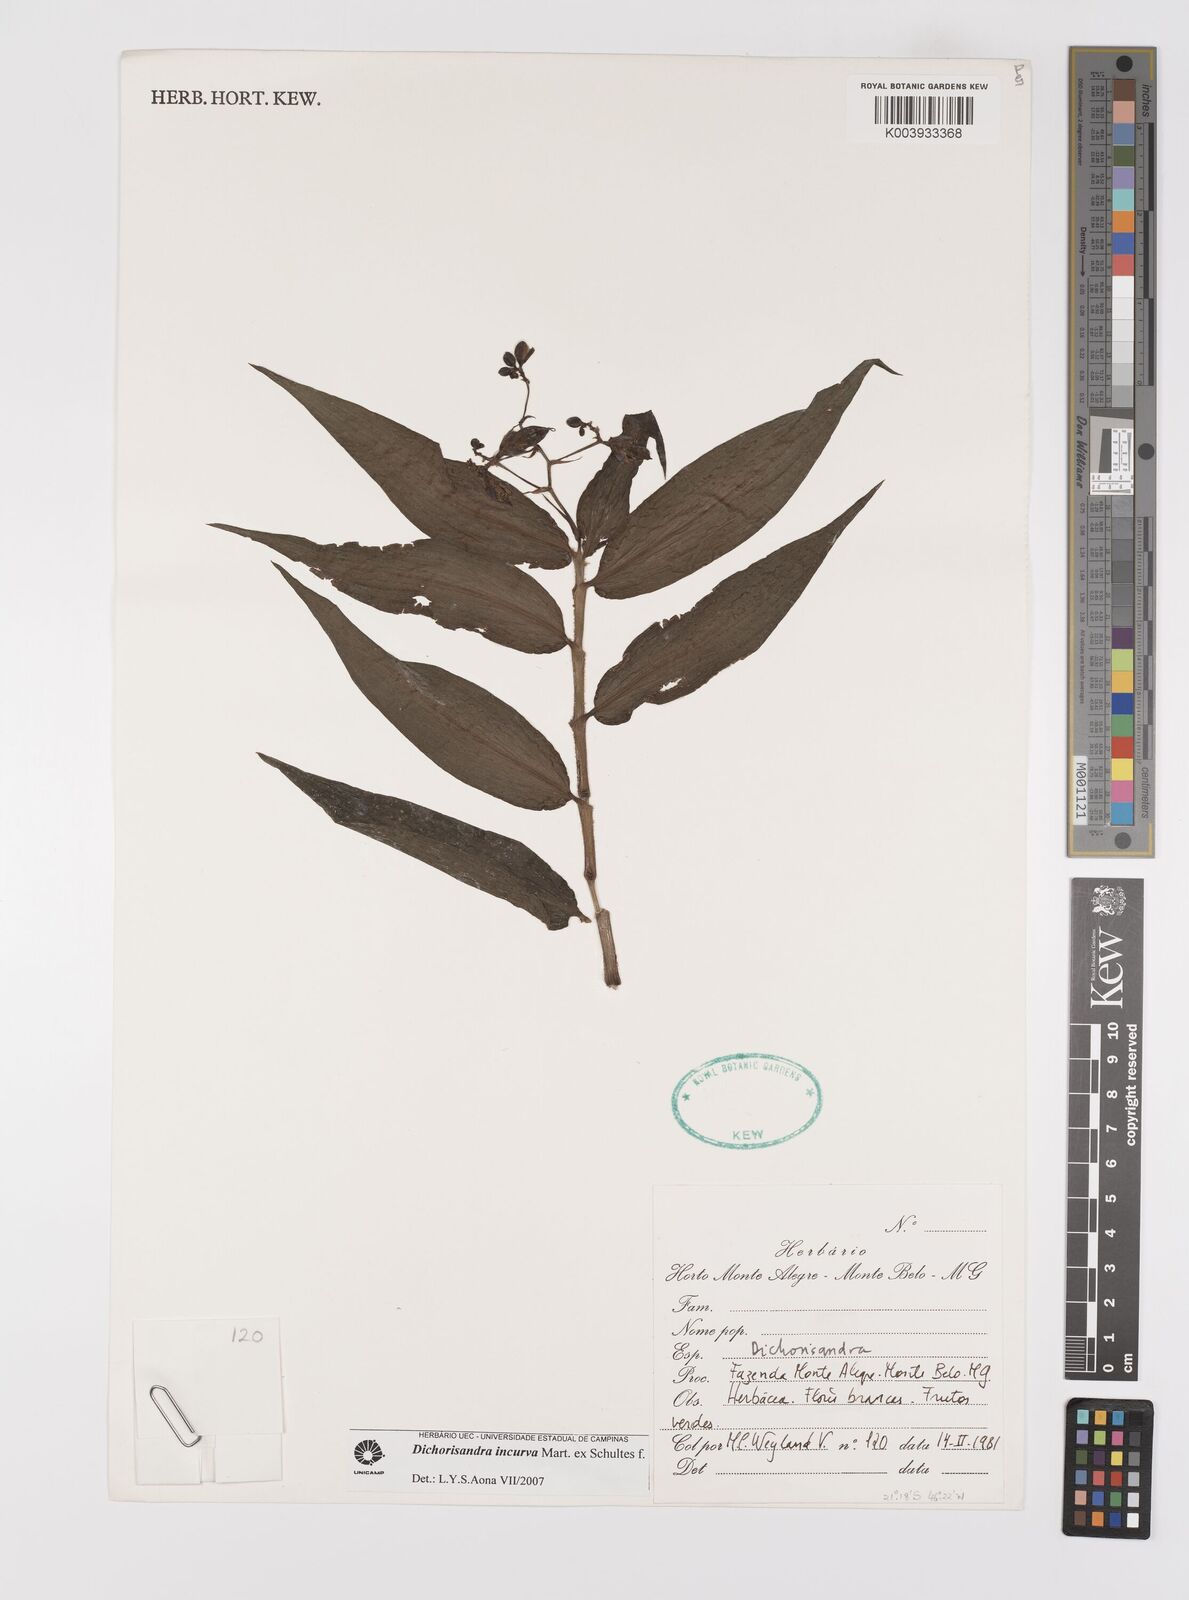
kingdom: Plantae
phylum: Tracheophyta
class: Liliopsida
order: Commelinales
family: Commelinaceae
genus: Dichorisandra
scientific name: Dichorisandra incurva
